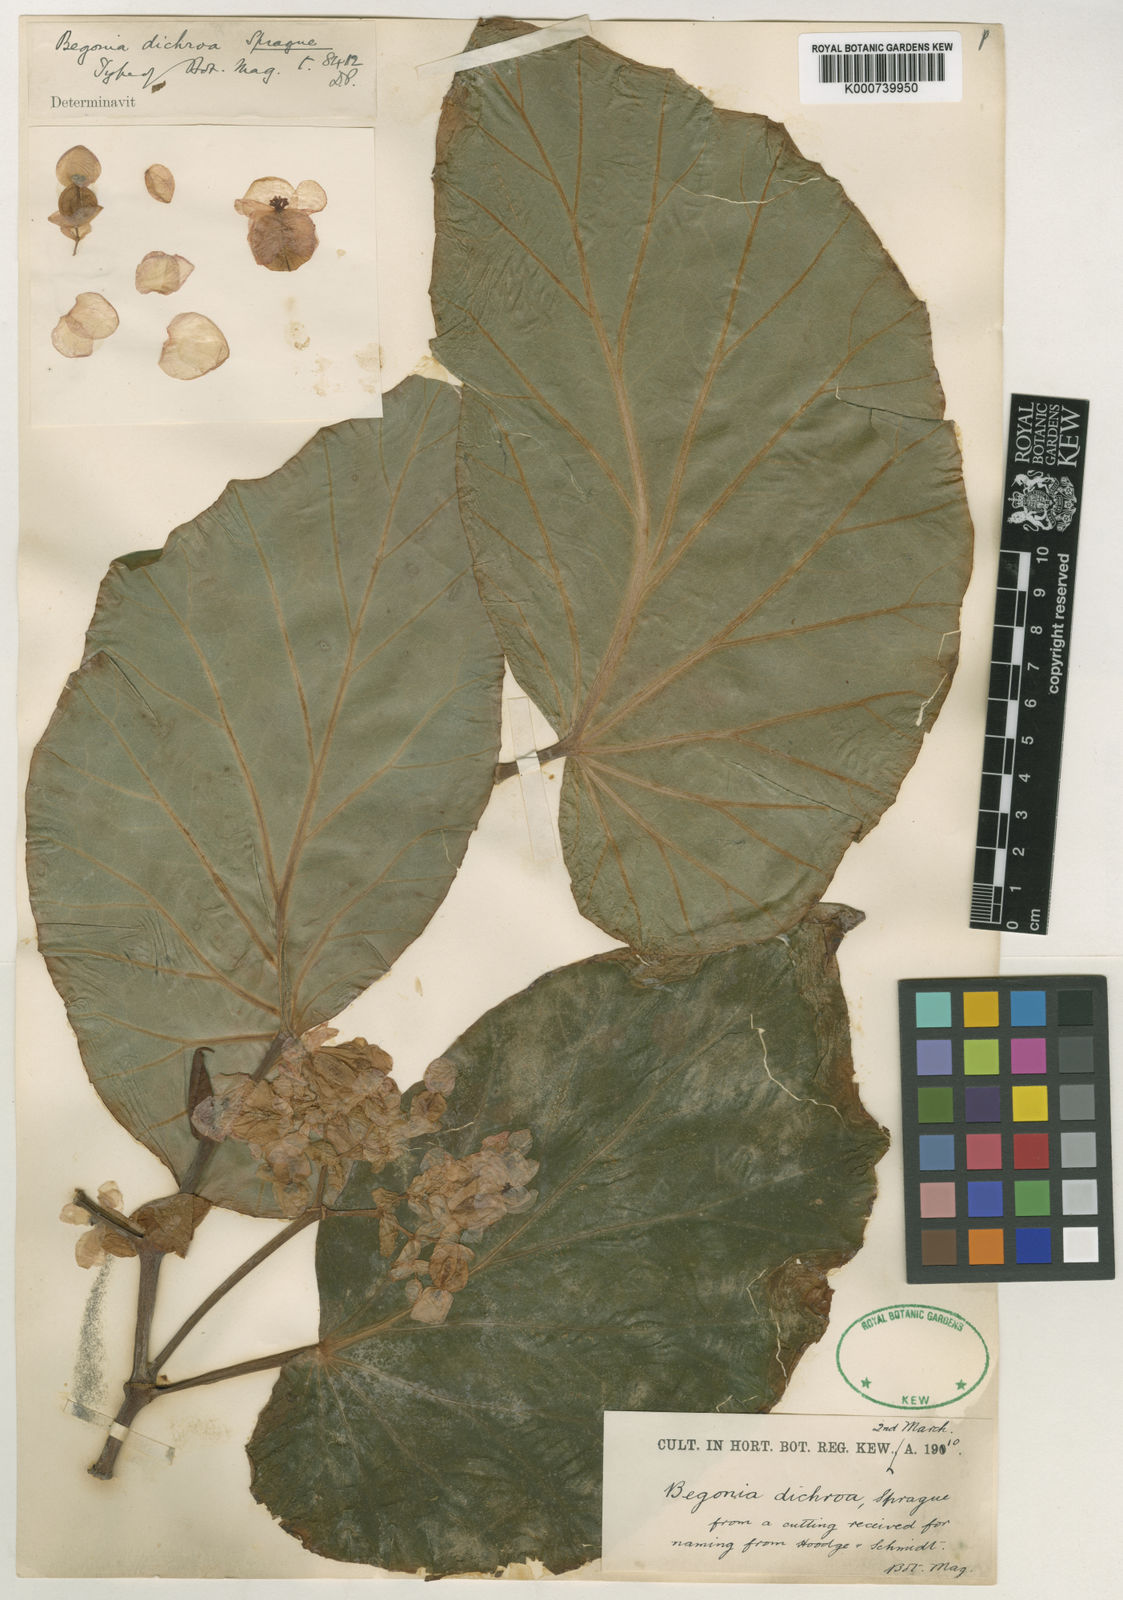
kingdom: Plantae
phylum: Tracheophyta
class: Magnoliopsida
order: Cucurbitales
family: Begoniaceae
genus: Begonia
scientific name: Begonia dichroa
